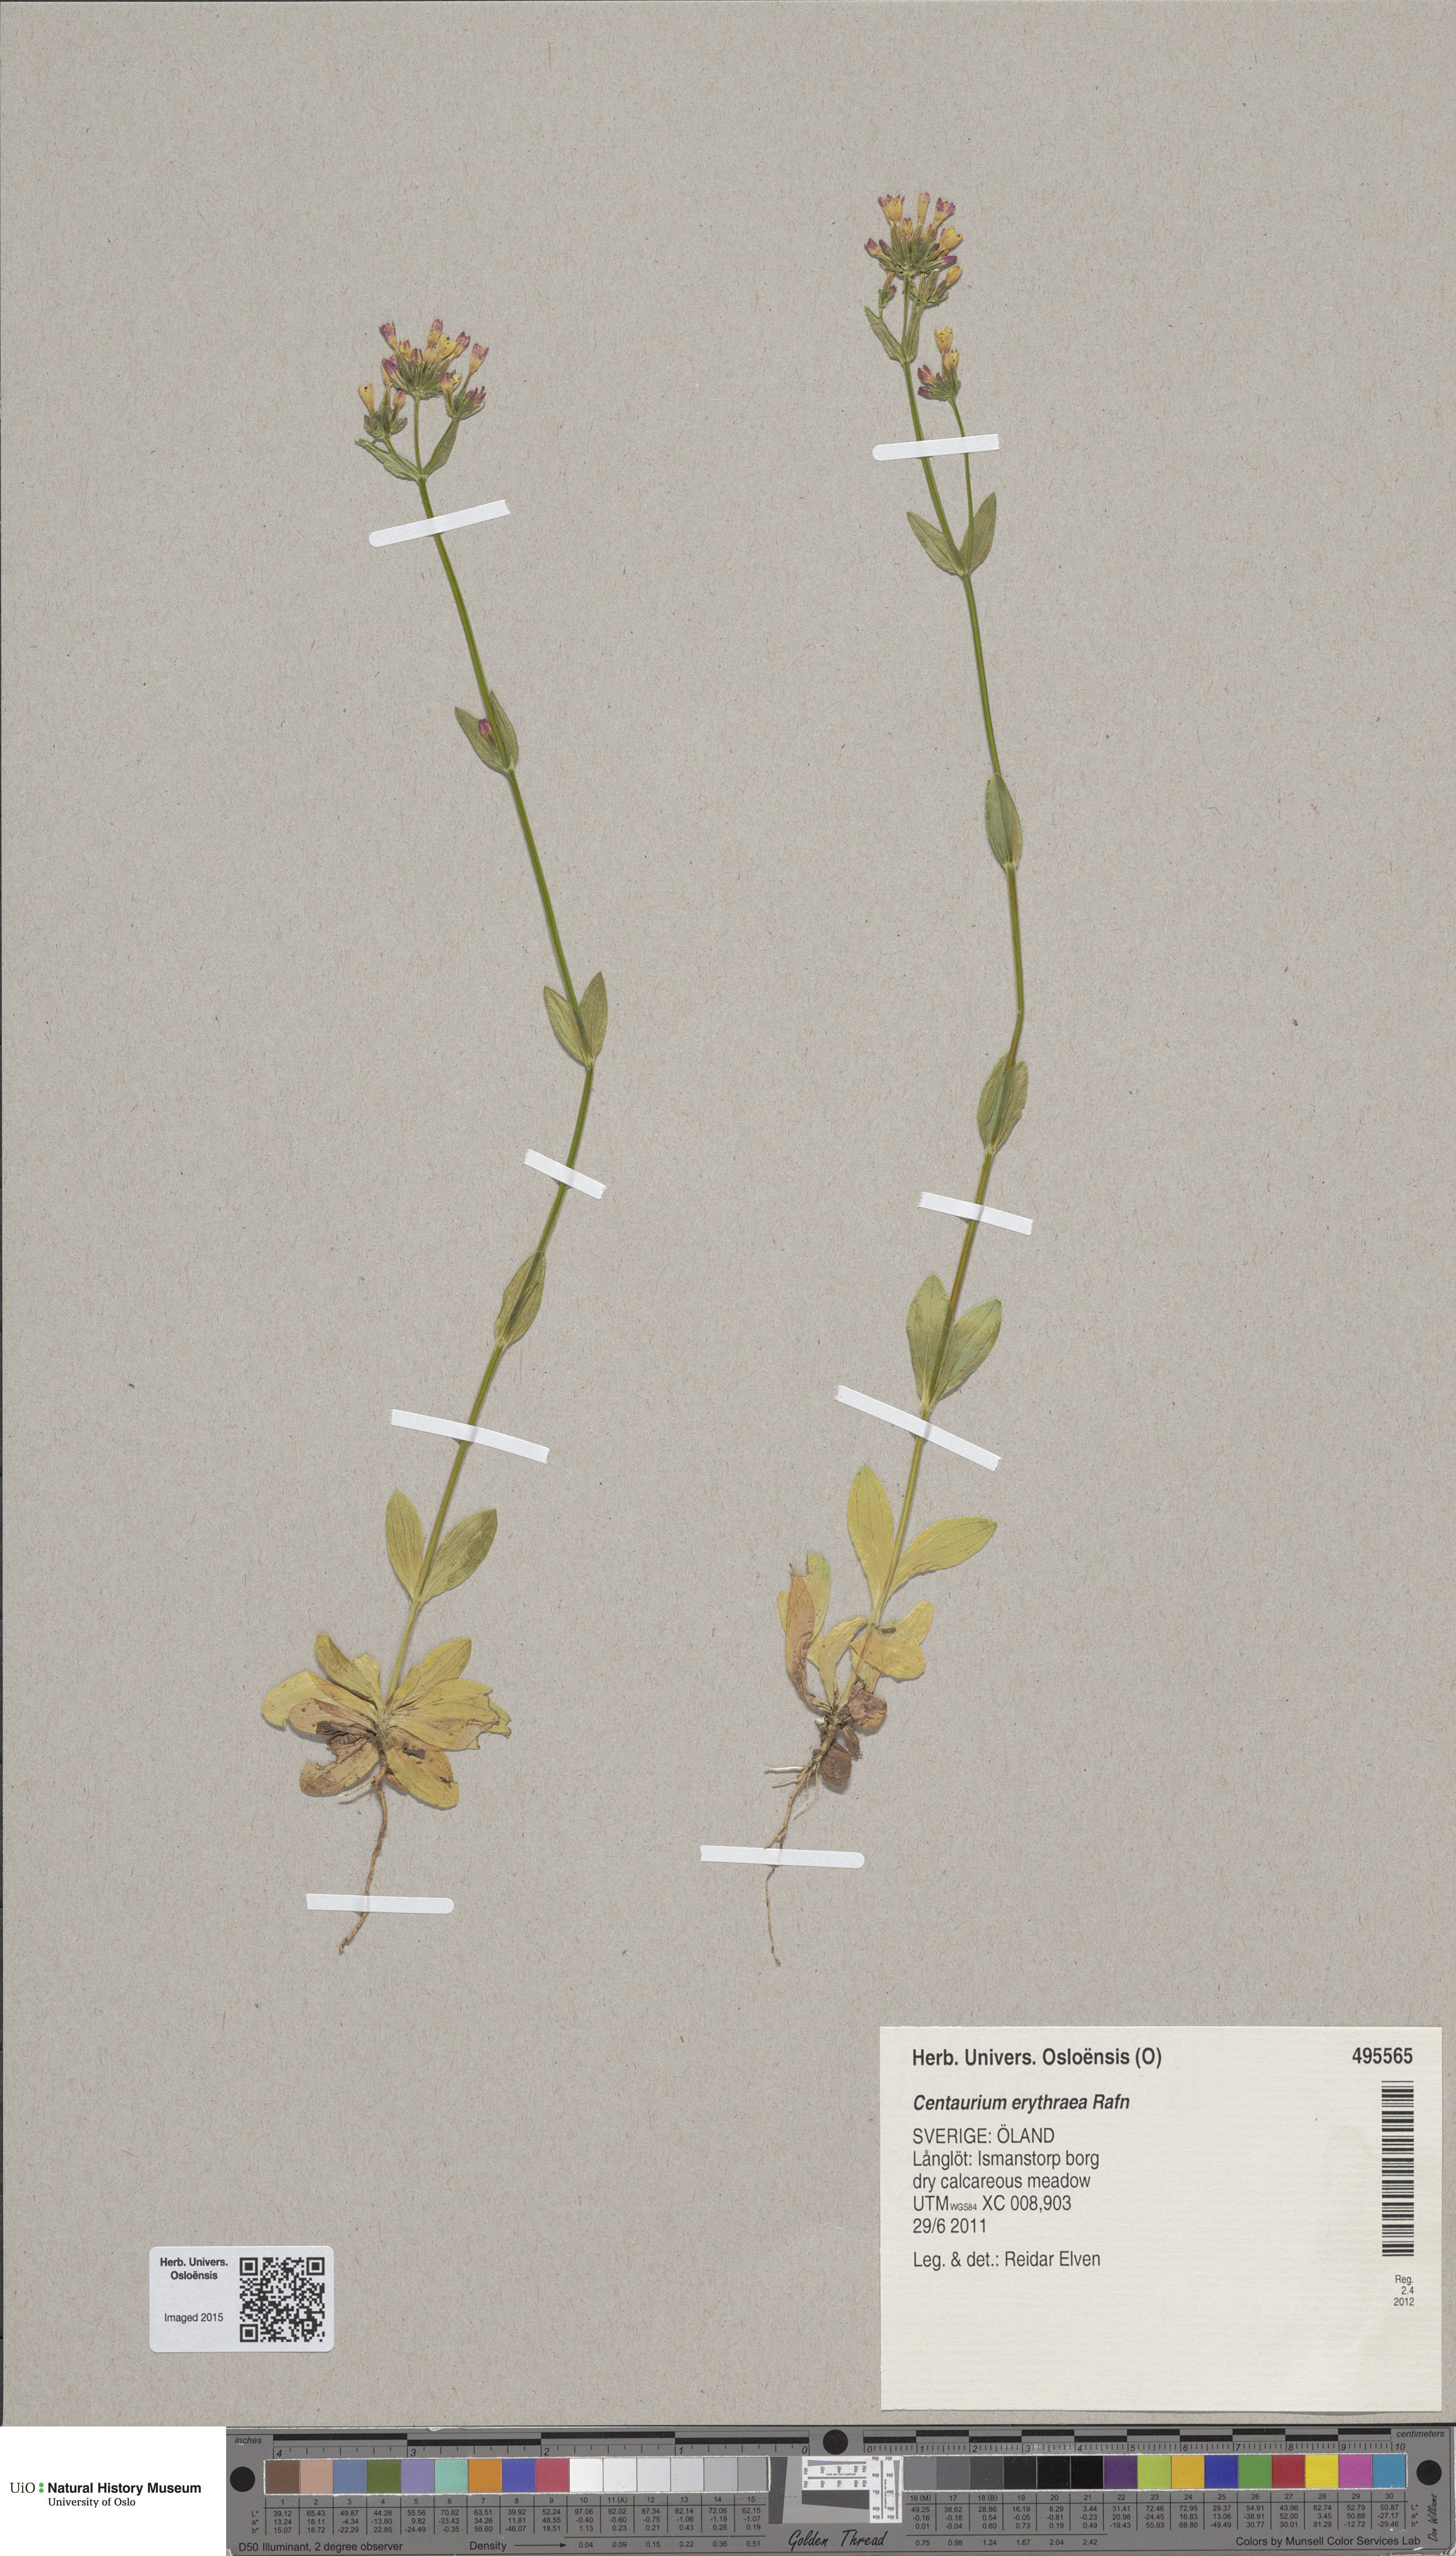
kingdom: Plantae
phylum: Tracheophyta
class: Magnoliopsida
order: Gentianales
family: Gentianaceae
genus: Centaurium
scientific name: Centaurium erythraea
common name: Common centaury
